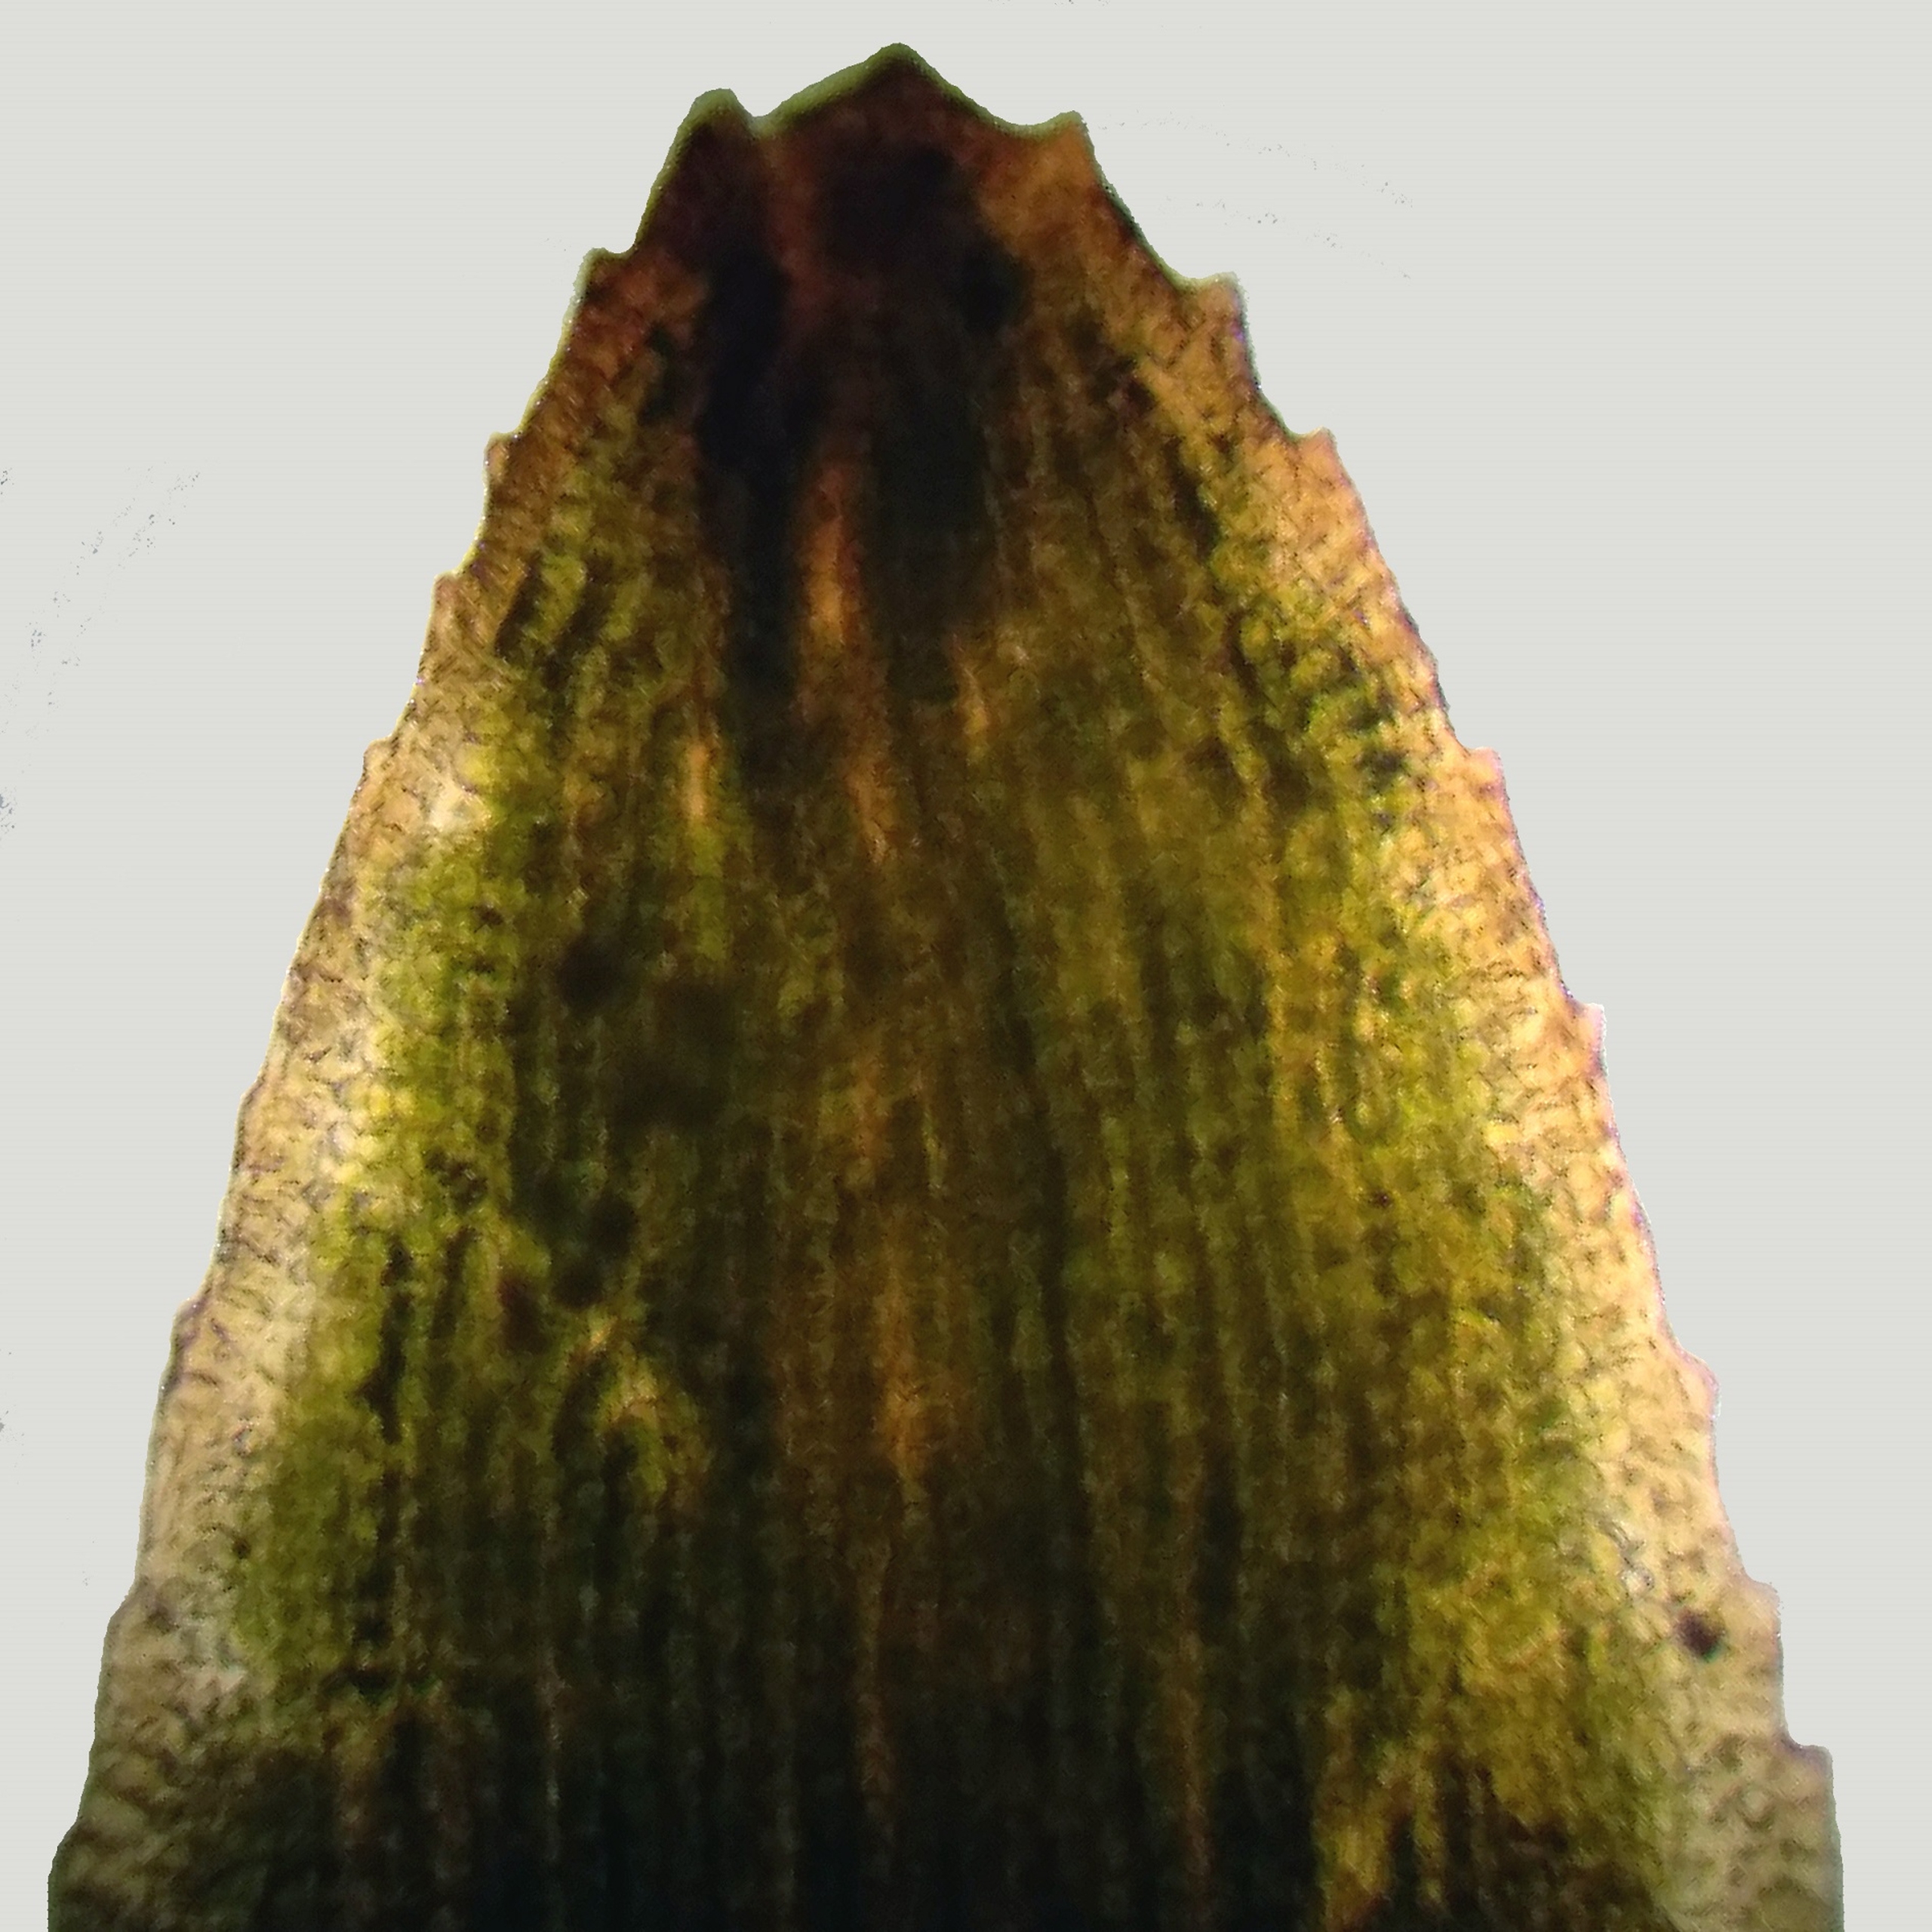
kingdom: Plantae
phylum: Bryophyta
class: Polytrichopsida
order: Polytrichales
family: Polytrichaceae
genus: Pogonatum
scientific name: Pogonatum nanum
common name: Dværg-urnekapsel
